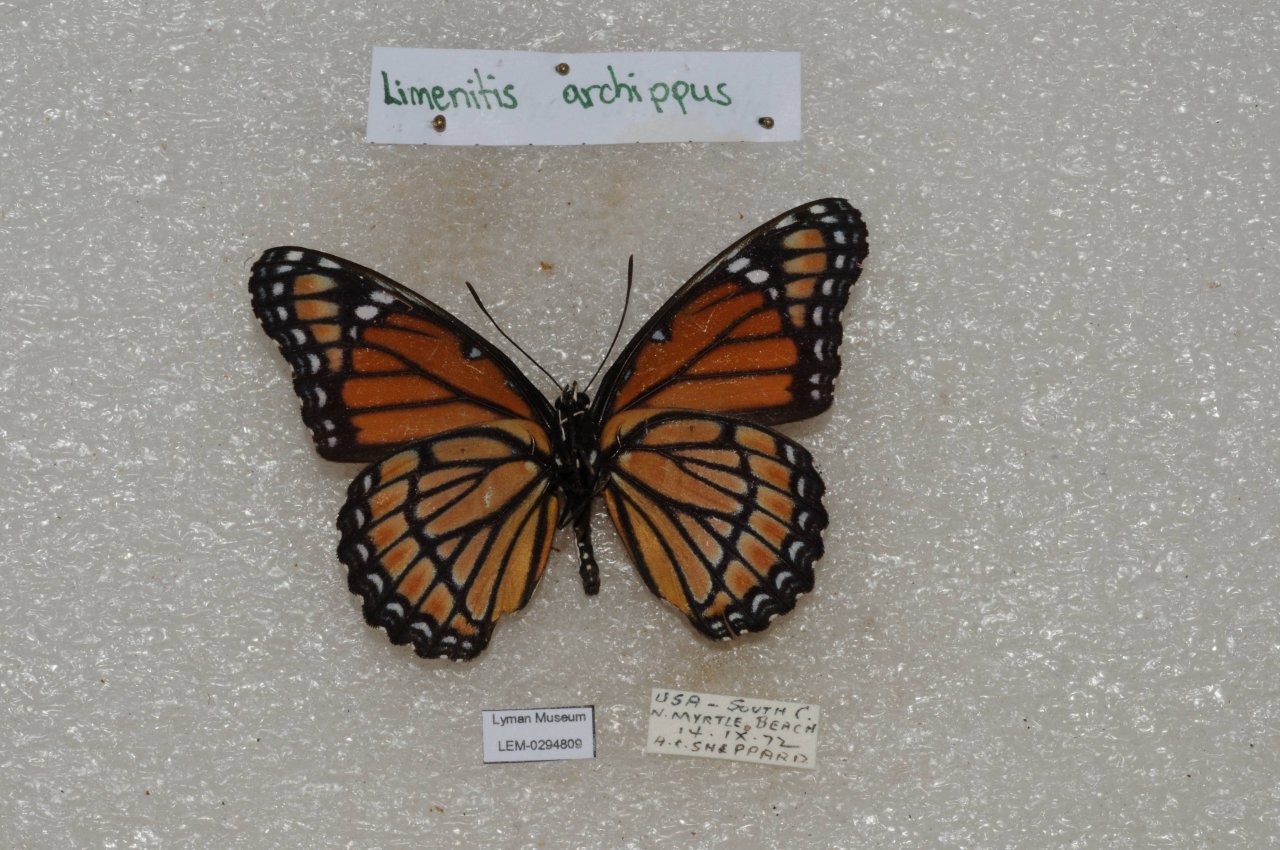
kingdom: Animalia
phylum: Arthropoda
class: Insecta
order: Lepidoptera
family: Nymphalidae
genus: Limenitis
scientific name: Limenitis archippus
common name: Viceroy
